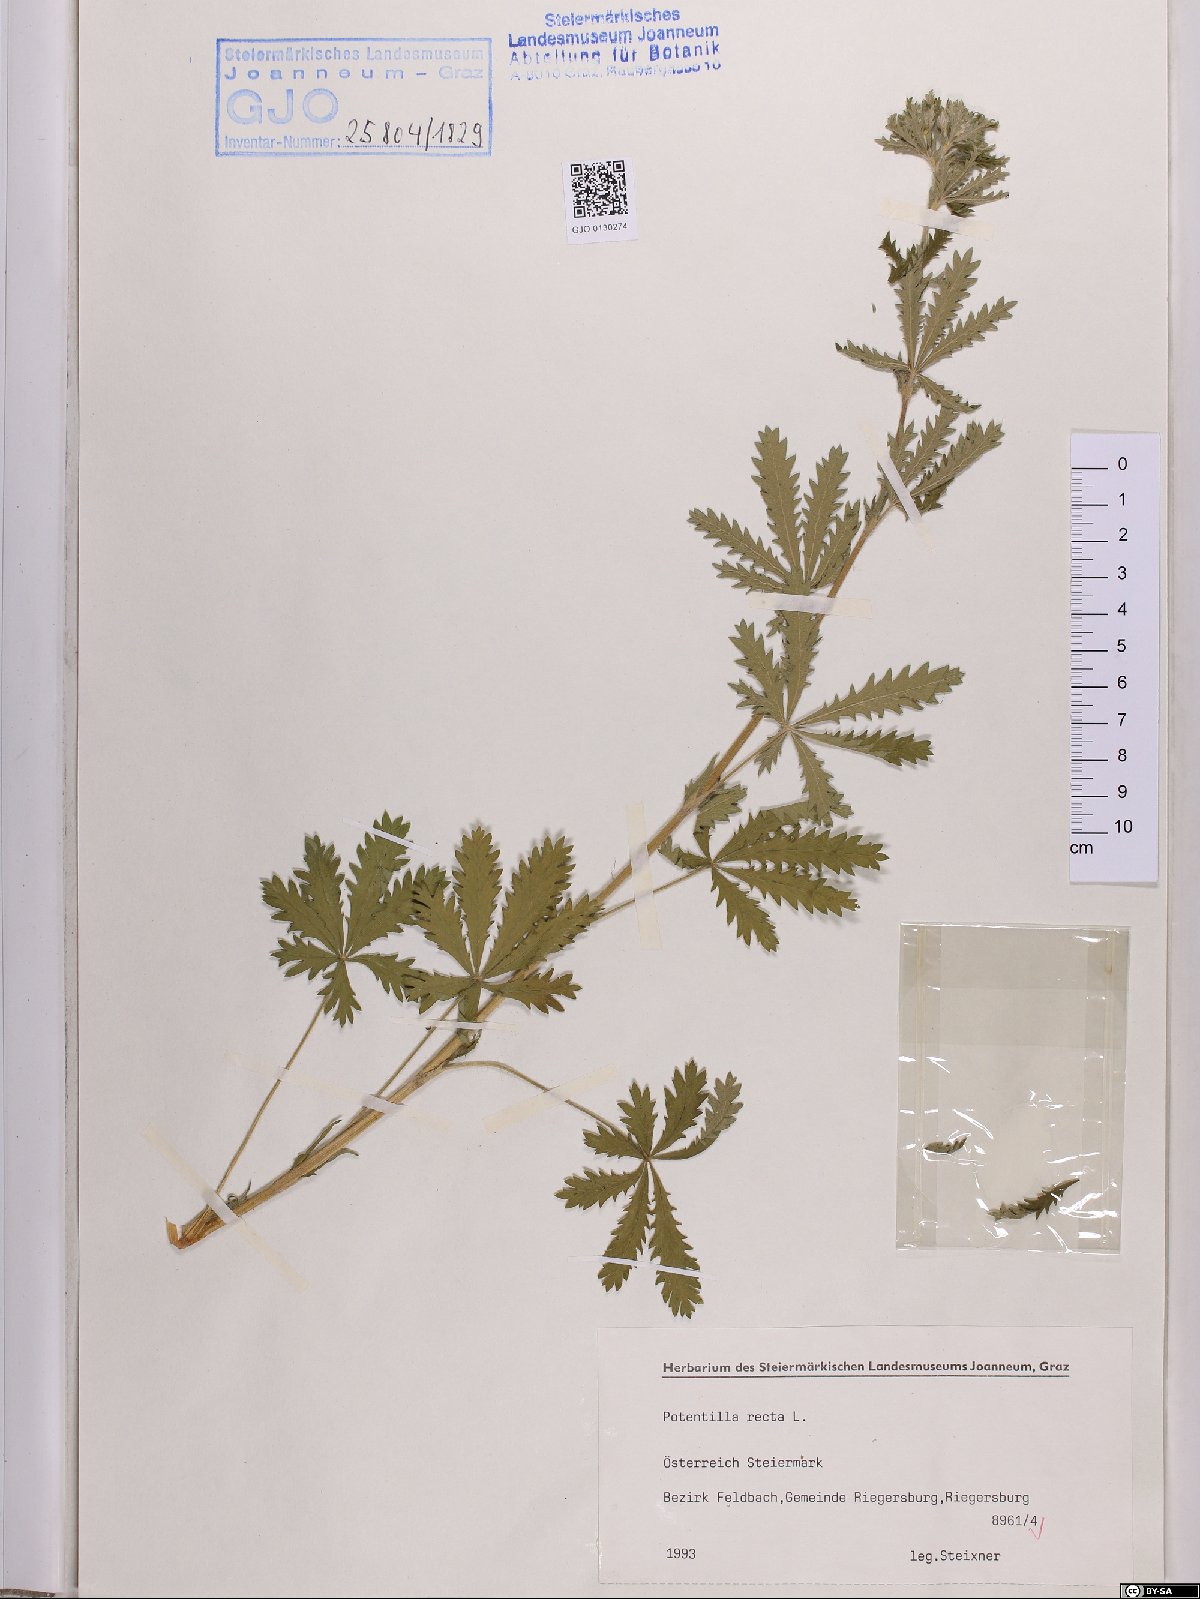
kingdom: Plantae
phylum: Tracheophyta
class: Magnoliopsida
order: Rosales
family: Rosaceae
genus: Potentilla
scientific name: Potentilla recta
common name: Sulphur cinquefoil
